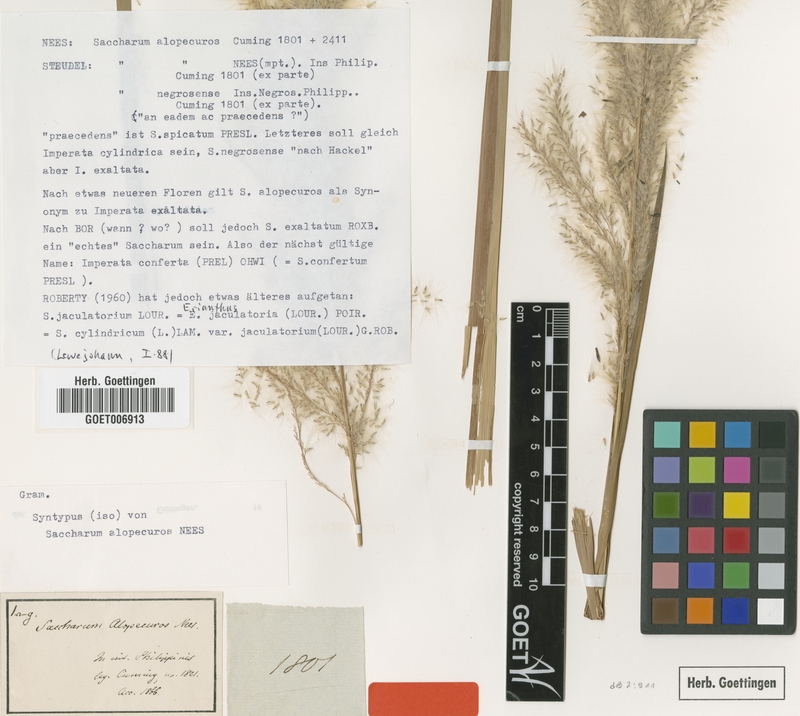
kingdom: Plantae
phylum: Tracheophyta
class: Liliopsida
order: Poales
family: Poaceae
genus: Imperata
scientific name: Imperata cylindrica
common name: Cogongrass
